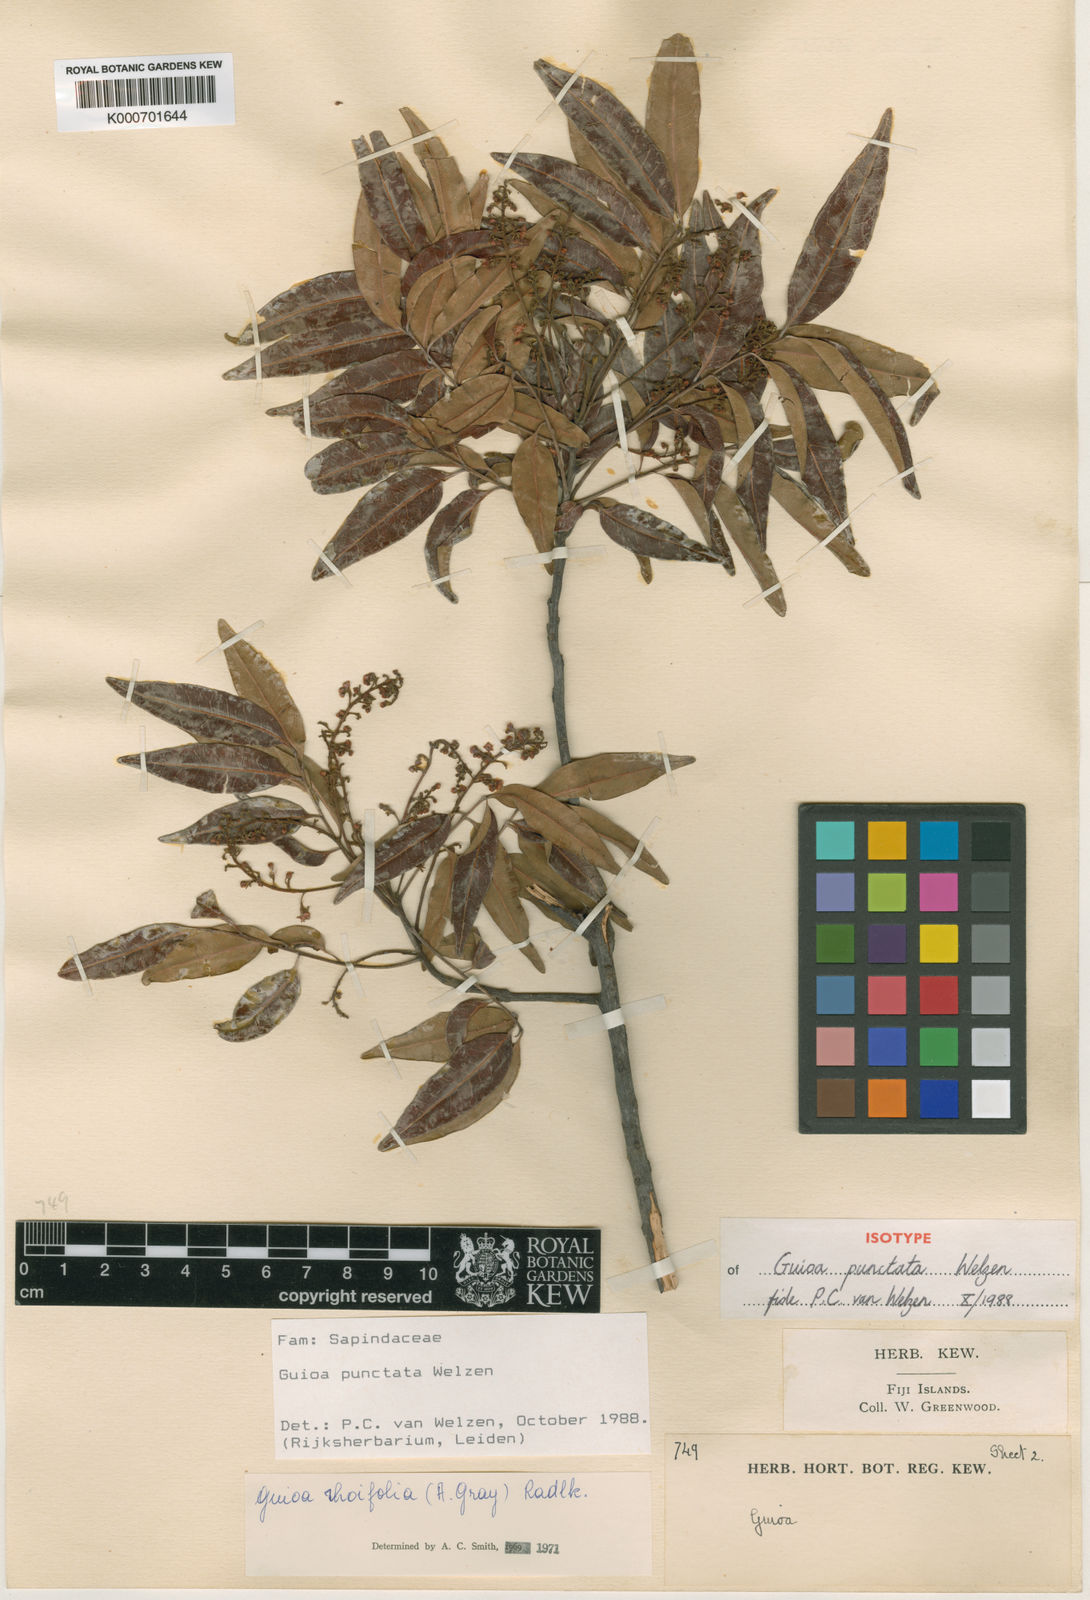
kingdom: Plantae
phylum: Tracheophyta
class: Magnoliopsida
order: Sapindales
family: Sapindaceae
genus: Guioa
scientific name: Guioa punctata
